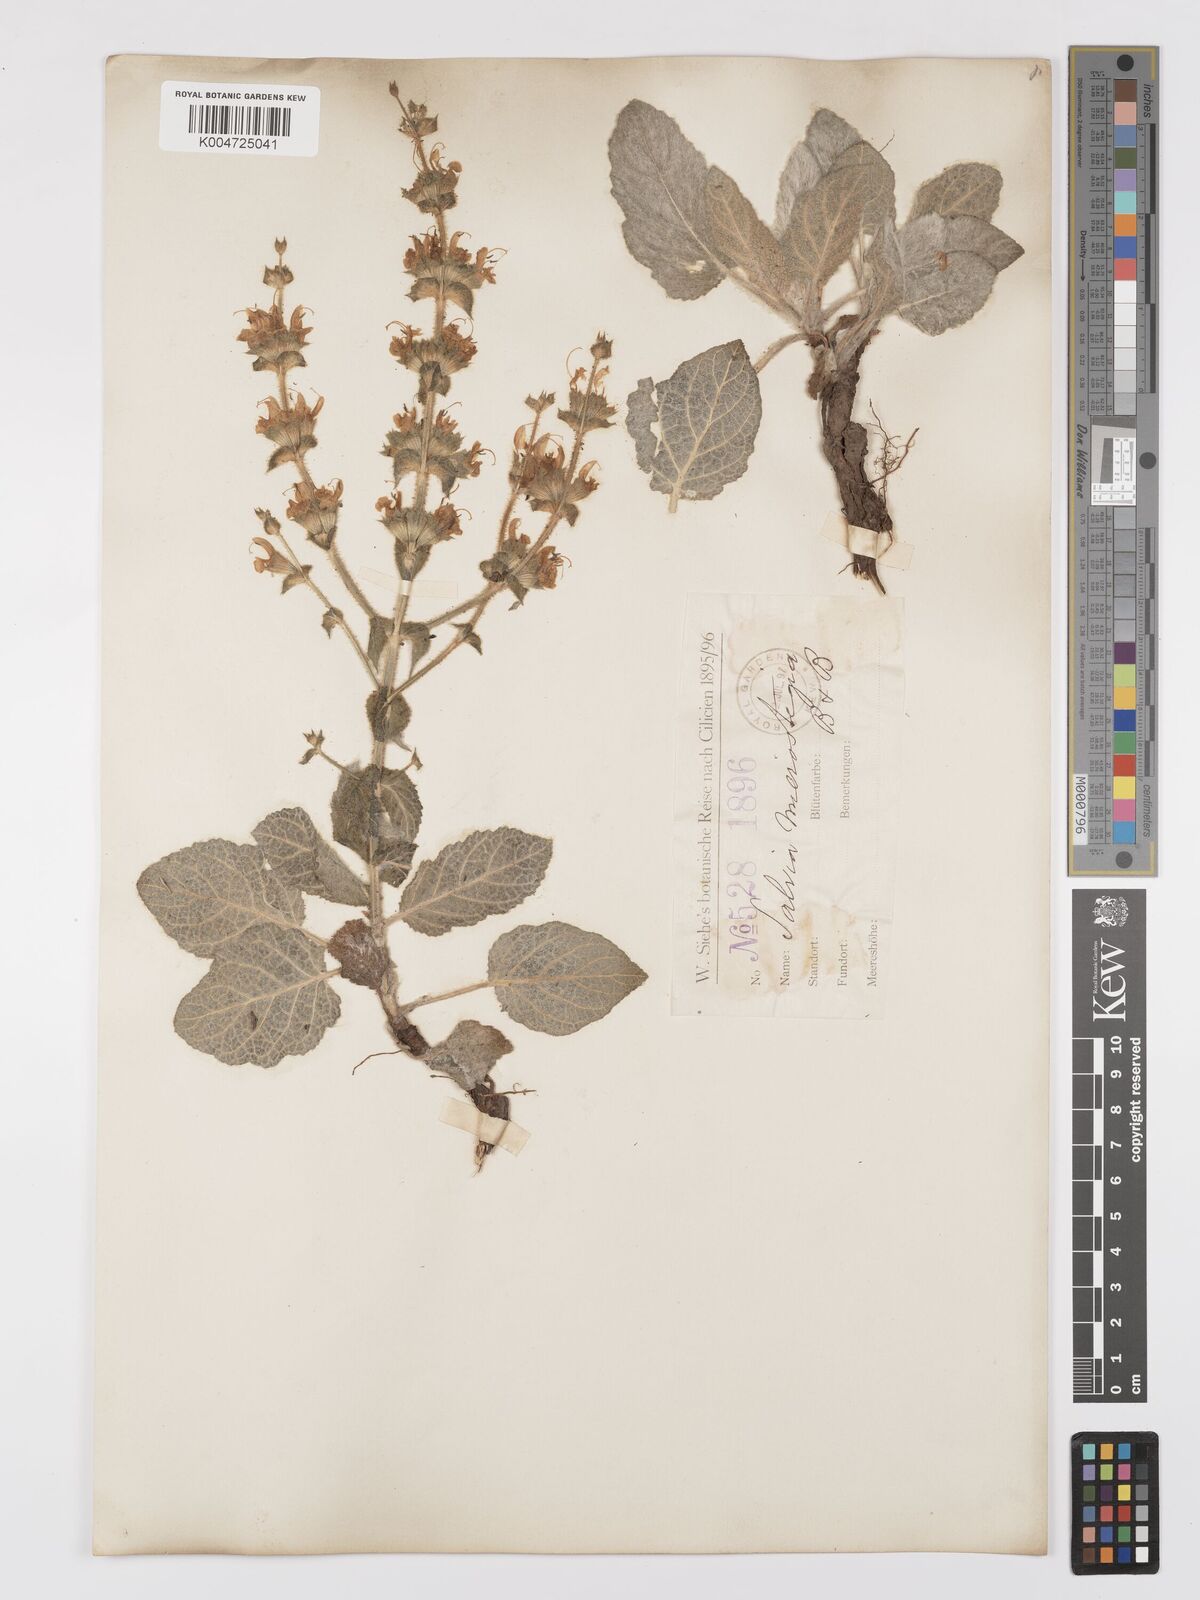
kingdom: Plantae
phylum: Tracheophyta
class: Magnoliopsida
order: Lamiales
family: Lamiaceae
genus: Salvia
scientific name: Salvia microstegia
